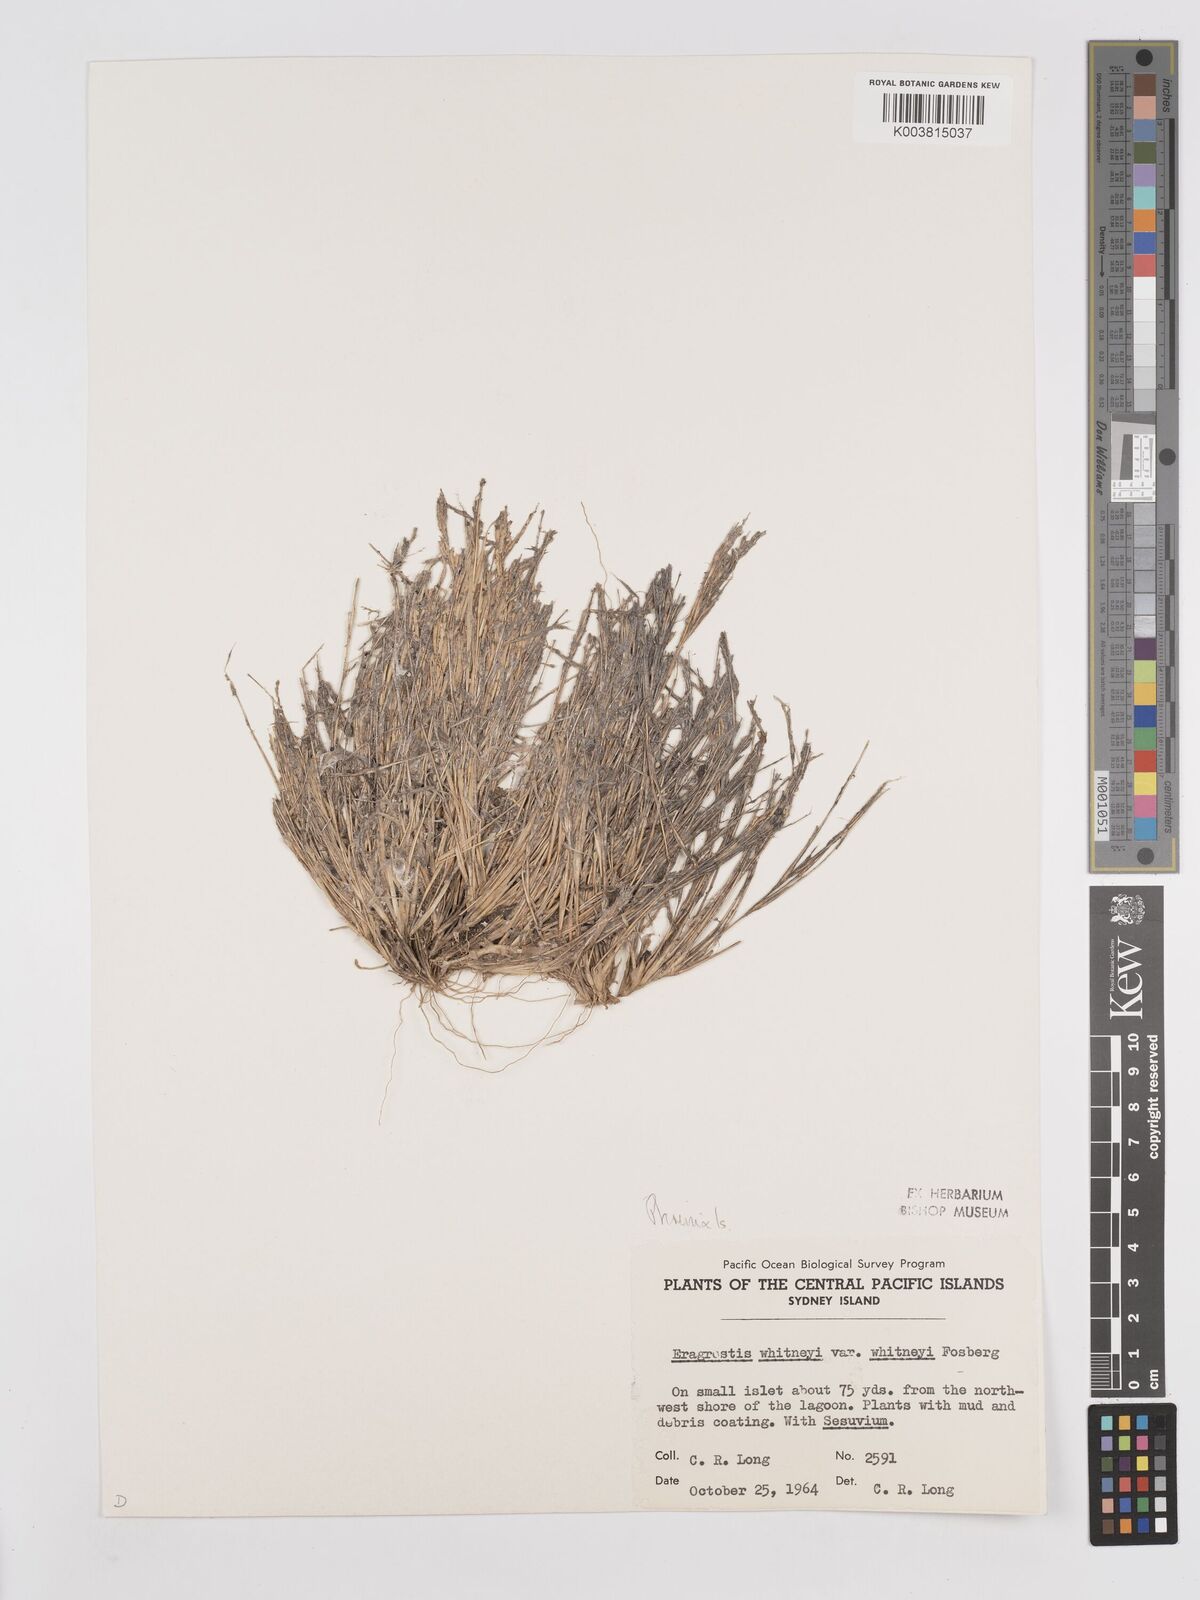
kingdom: Plantae
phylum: Tracheophyta
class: Liliopsida
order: Poales
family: Poaceae
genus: Eragrostis
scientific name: Eragrostis paupera
